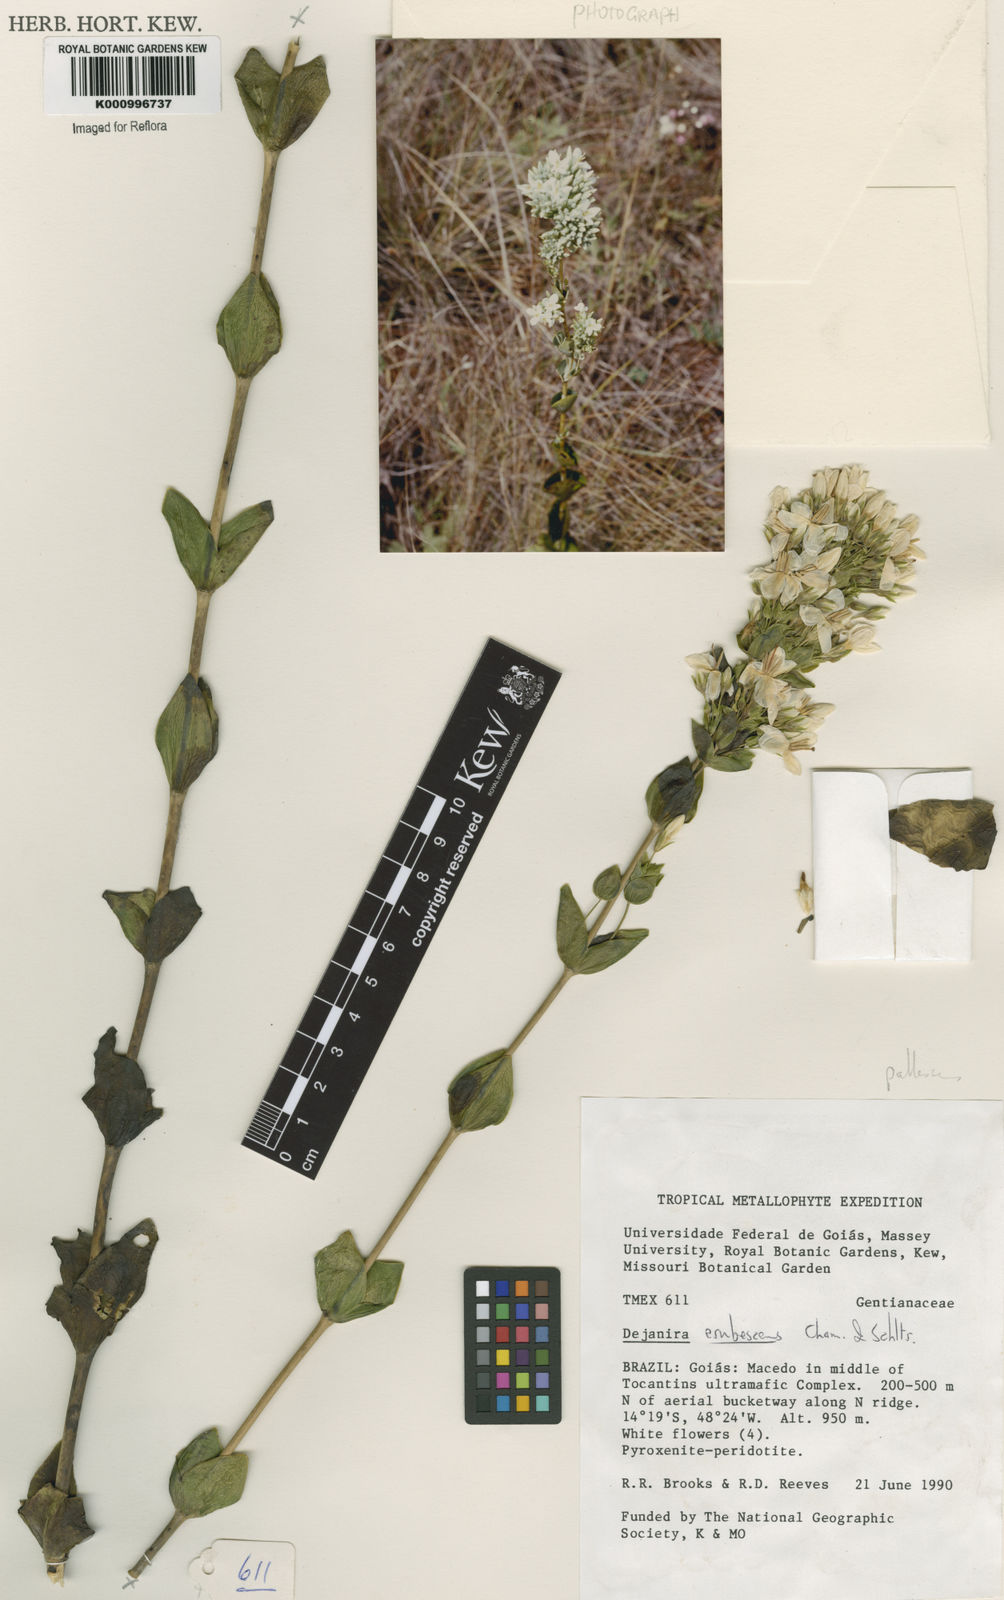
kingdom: Plantae
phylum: Tracheophyta
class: Magnoliopsida
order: Gentianales
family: Gentianaceae
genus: Deianira
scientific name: Deianira pallescens
